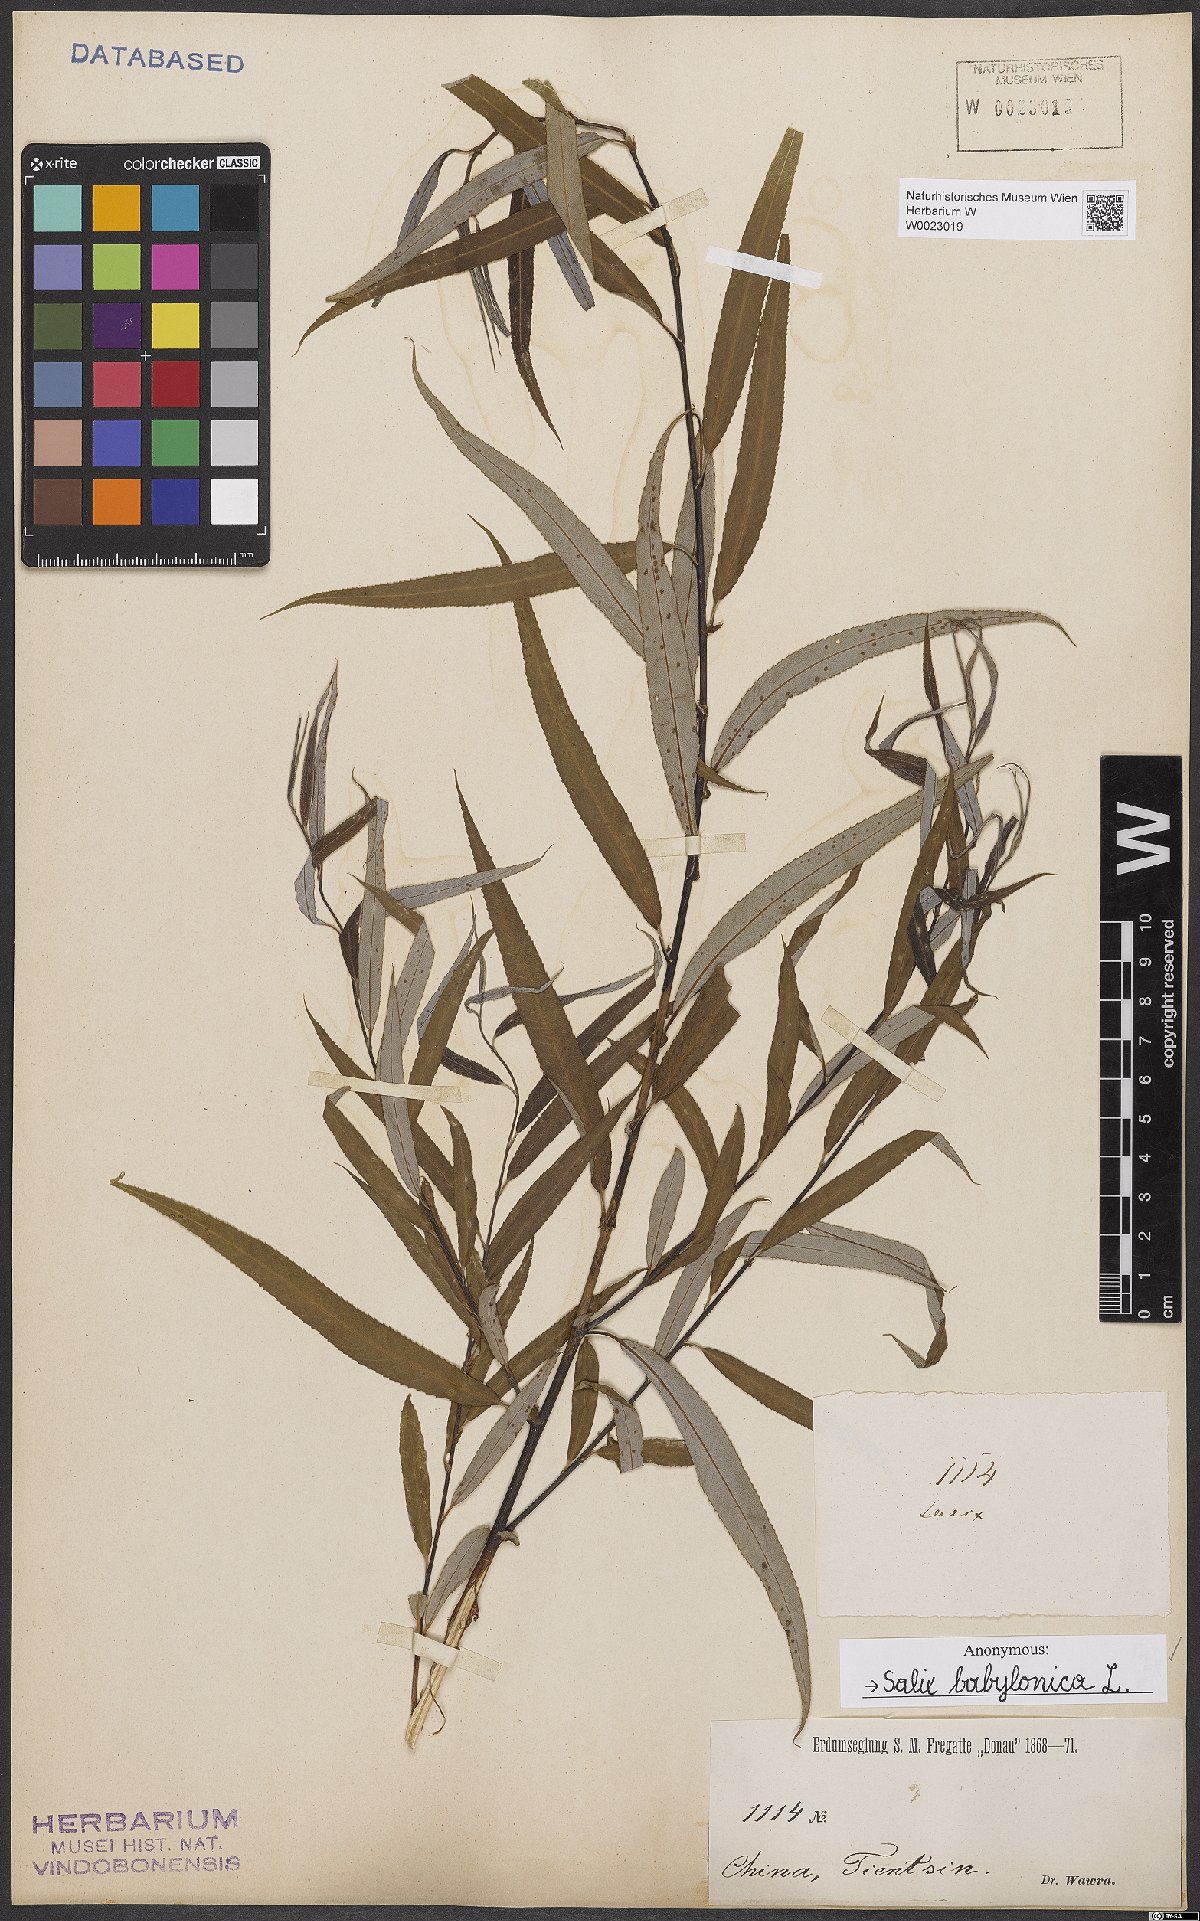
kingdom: Plantae
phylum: Tracheophyta
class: Magnoliopsida
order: Malpighiales
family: Salicaceae
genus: Salix
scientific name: Salix babylonica
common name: Weeping willow
